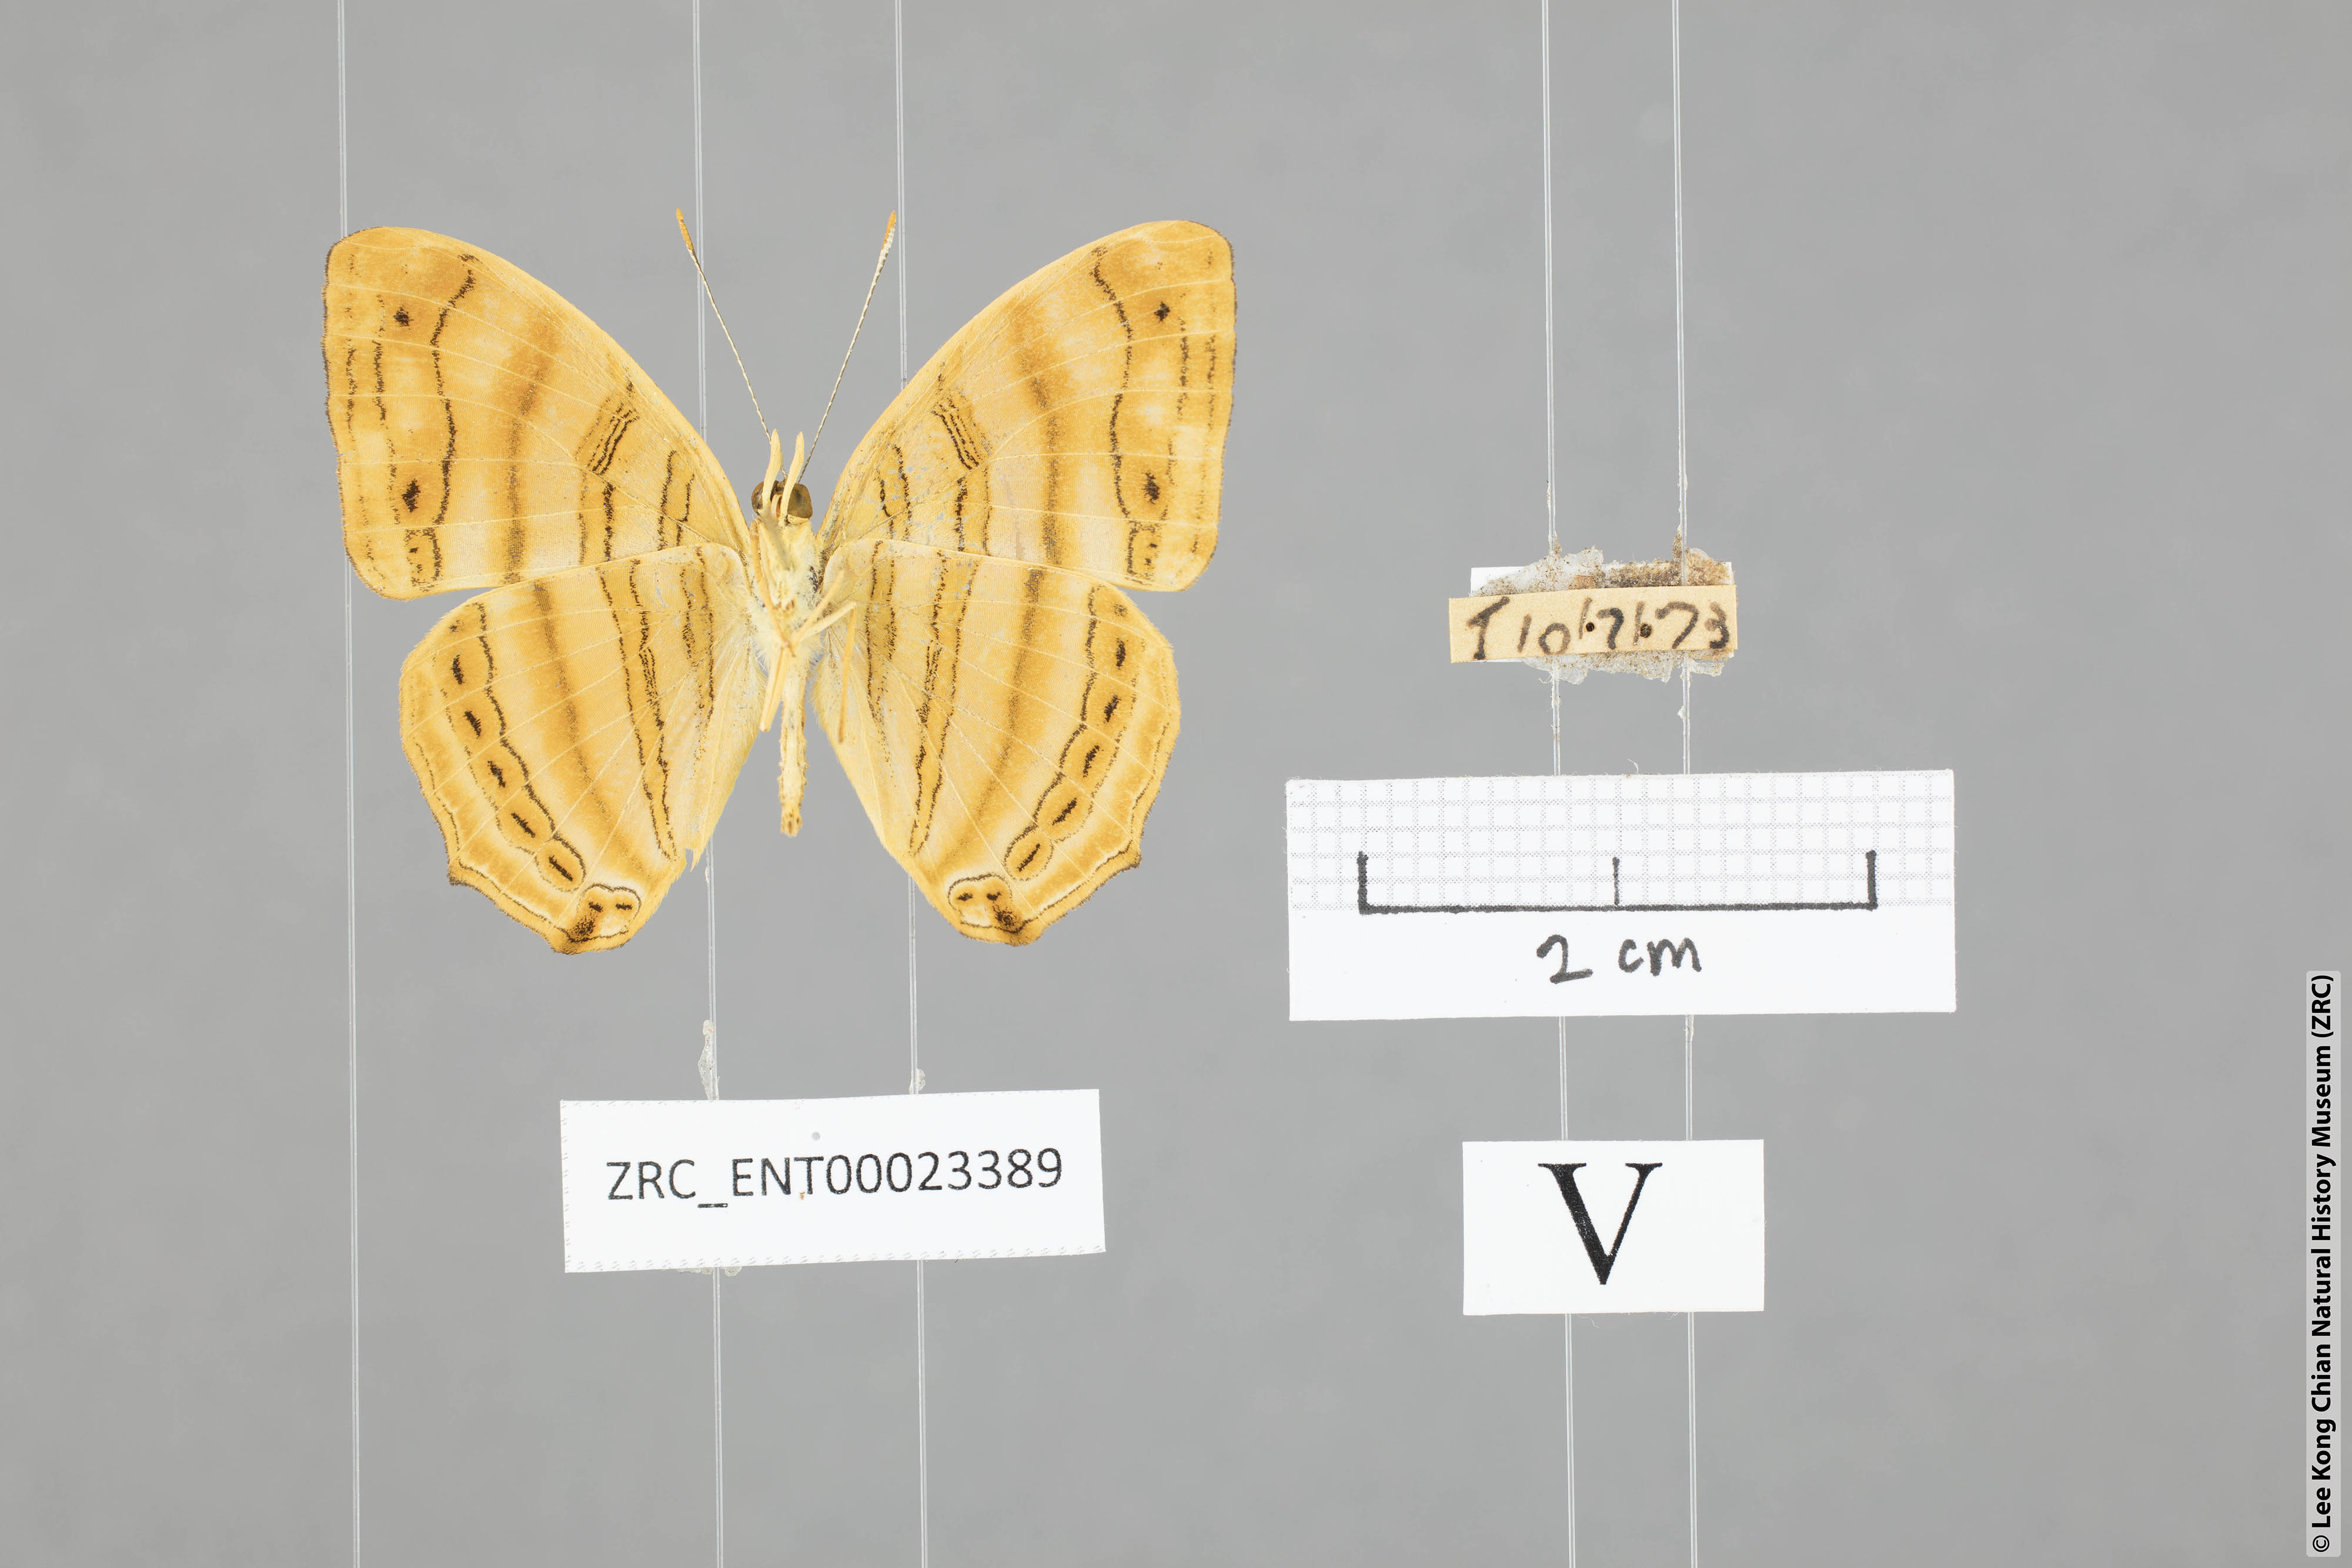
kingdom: Animalia
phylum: Arthropoda
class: Insecta
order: Lepidoptera
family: Nymphalidae
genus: Chersonesia
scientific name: Chersonesia rahria
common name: Wavy maplet
